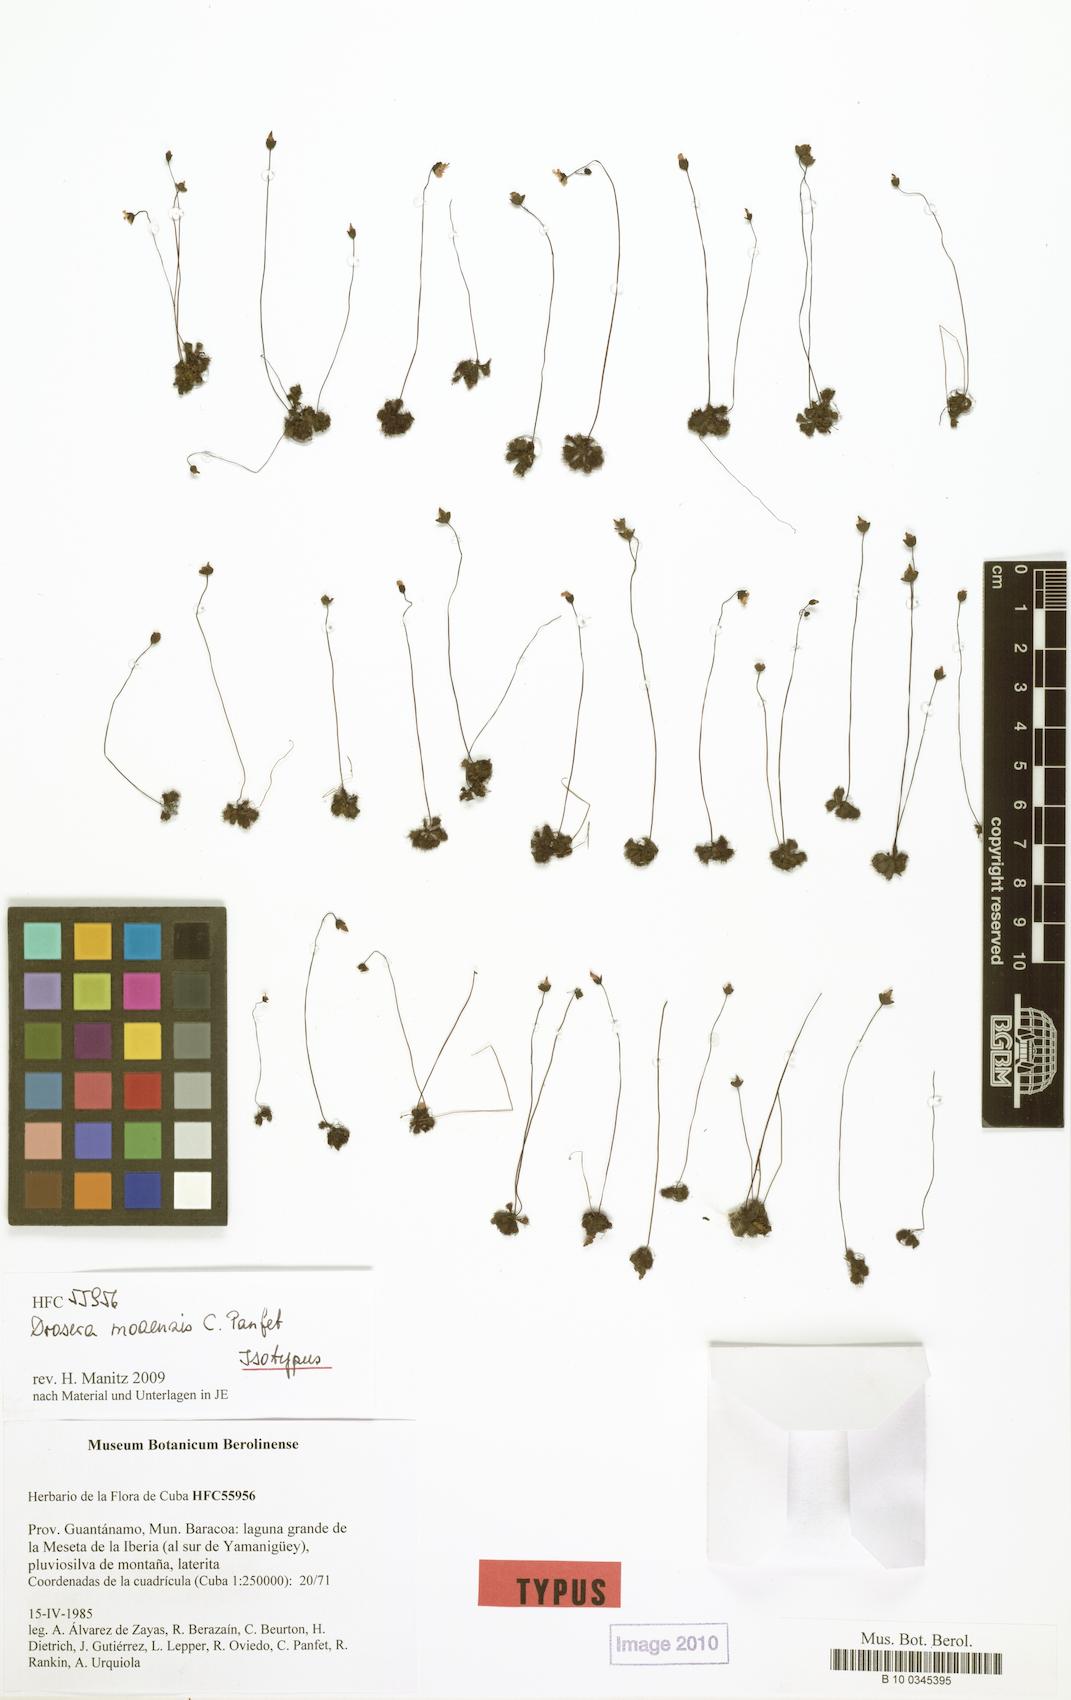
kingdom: Plantae
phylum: Tracheophyta
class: Magnoliopsida
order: Caryophyllales
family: Droseraceae
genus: Drosera
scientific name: Drosera brevifolia
